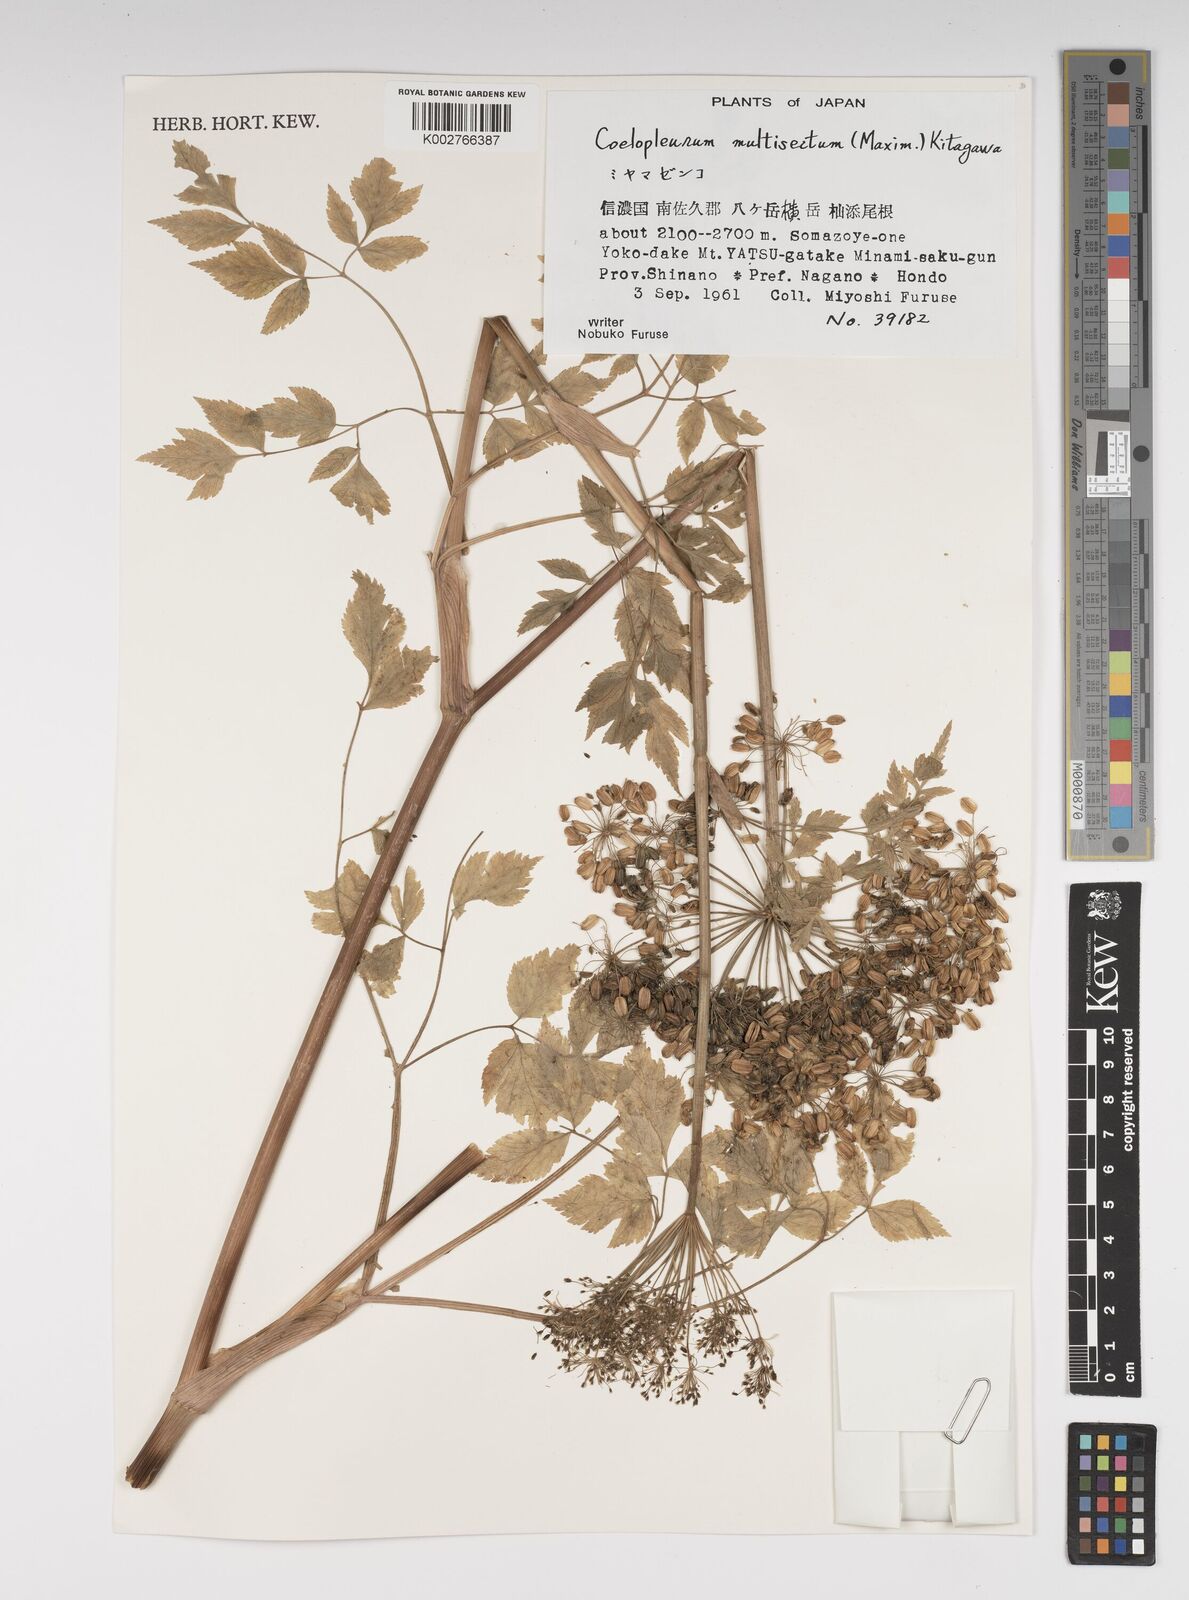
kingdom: Plantae
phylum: Tracheophyta
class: Magnoliopsida
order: Apiales
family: Apiaceae
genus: Angelica
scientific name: Angelica
